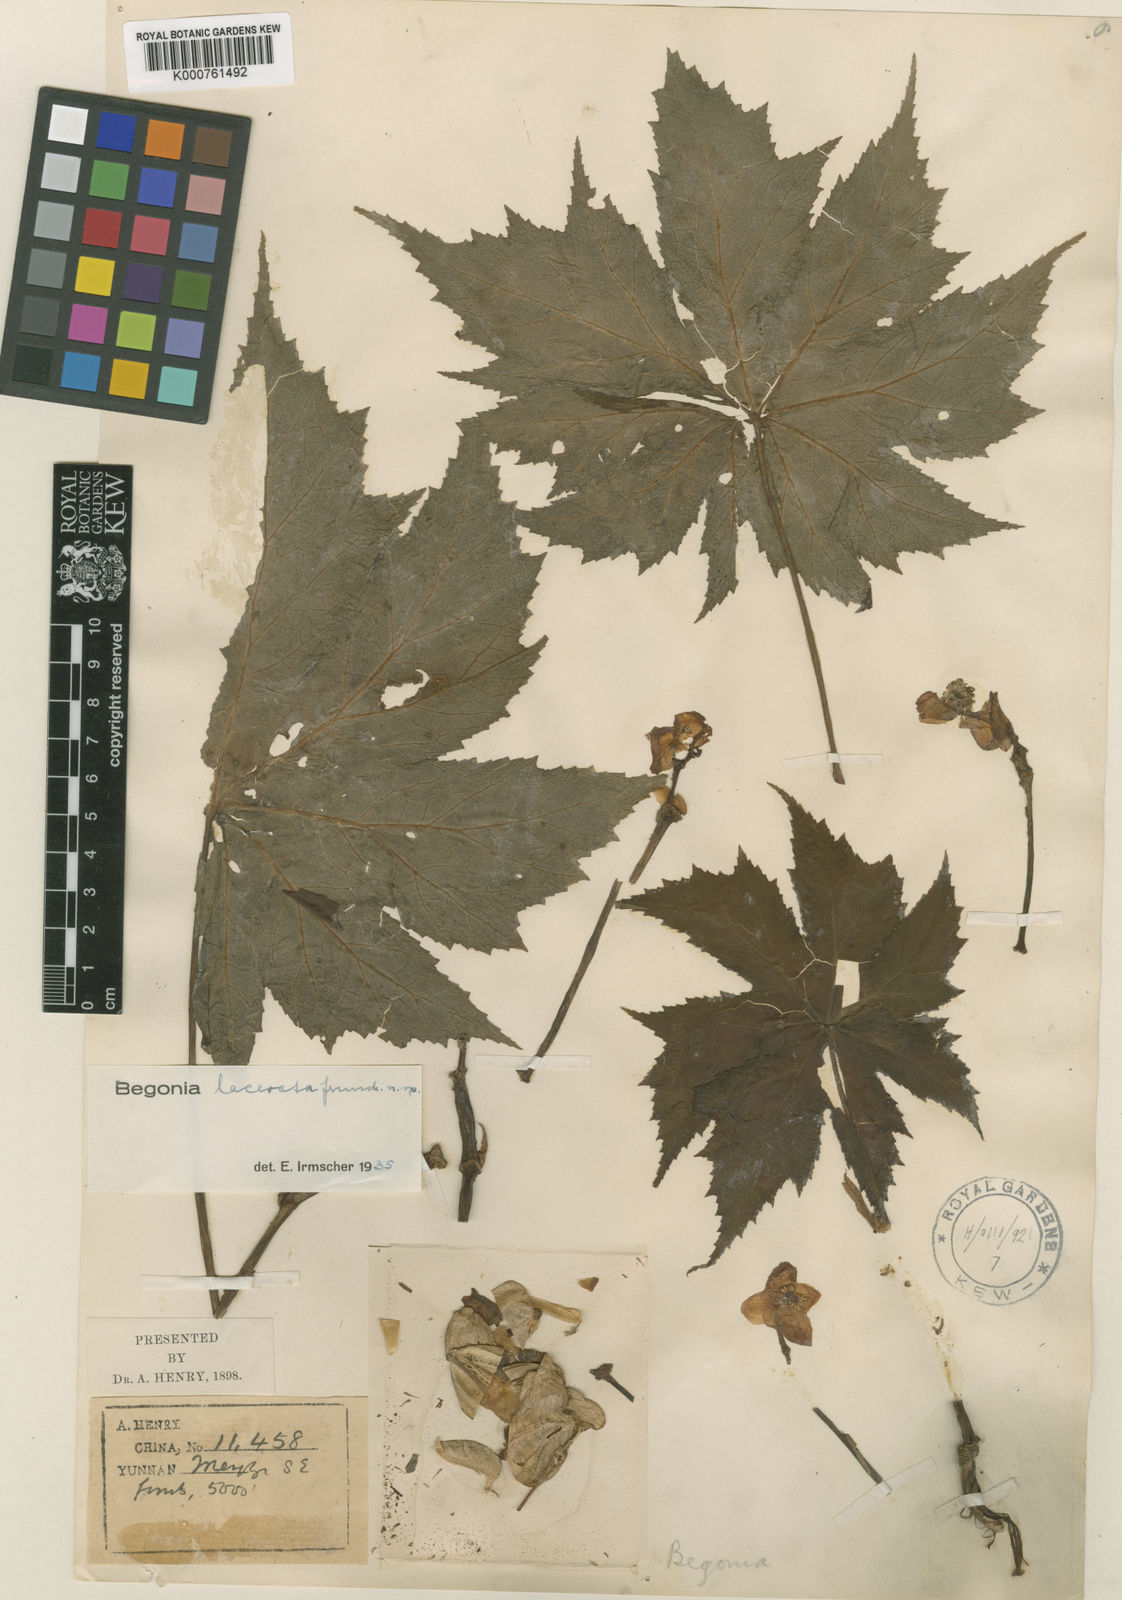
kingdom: Plantae
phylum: Tracheophyta
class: Magnoliopsida
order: Cucurbitales
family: Begoniaceae
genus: Begonia
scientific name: Begonia lacerata
